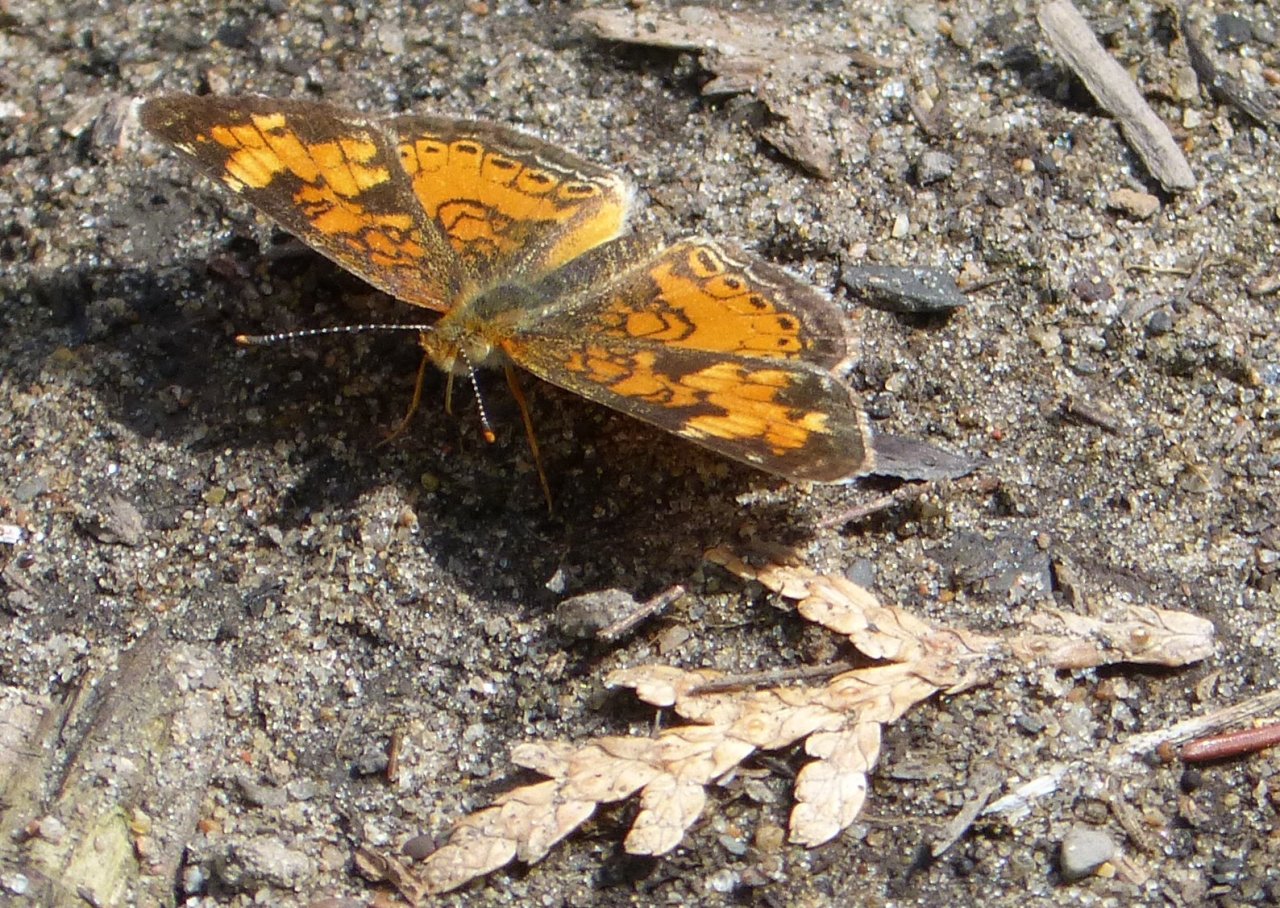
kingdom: Animalia
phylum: Arthropoda
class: Insecta
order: Lepidoptera
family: Nymphalidae
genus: Phyciodes
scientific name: Phyciodes tharos
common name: Northern Crescent
